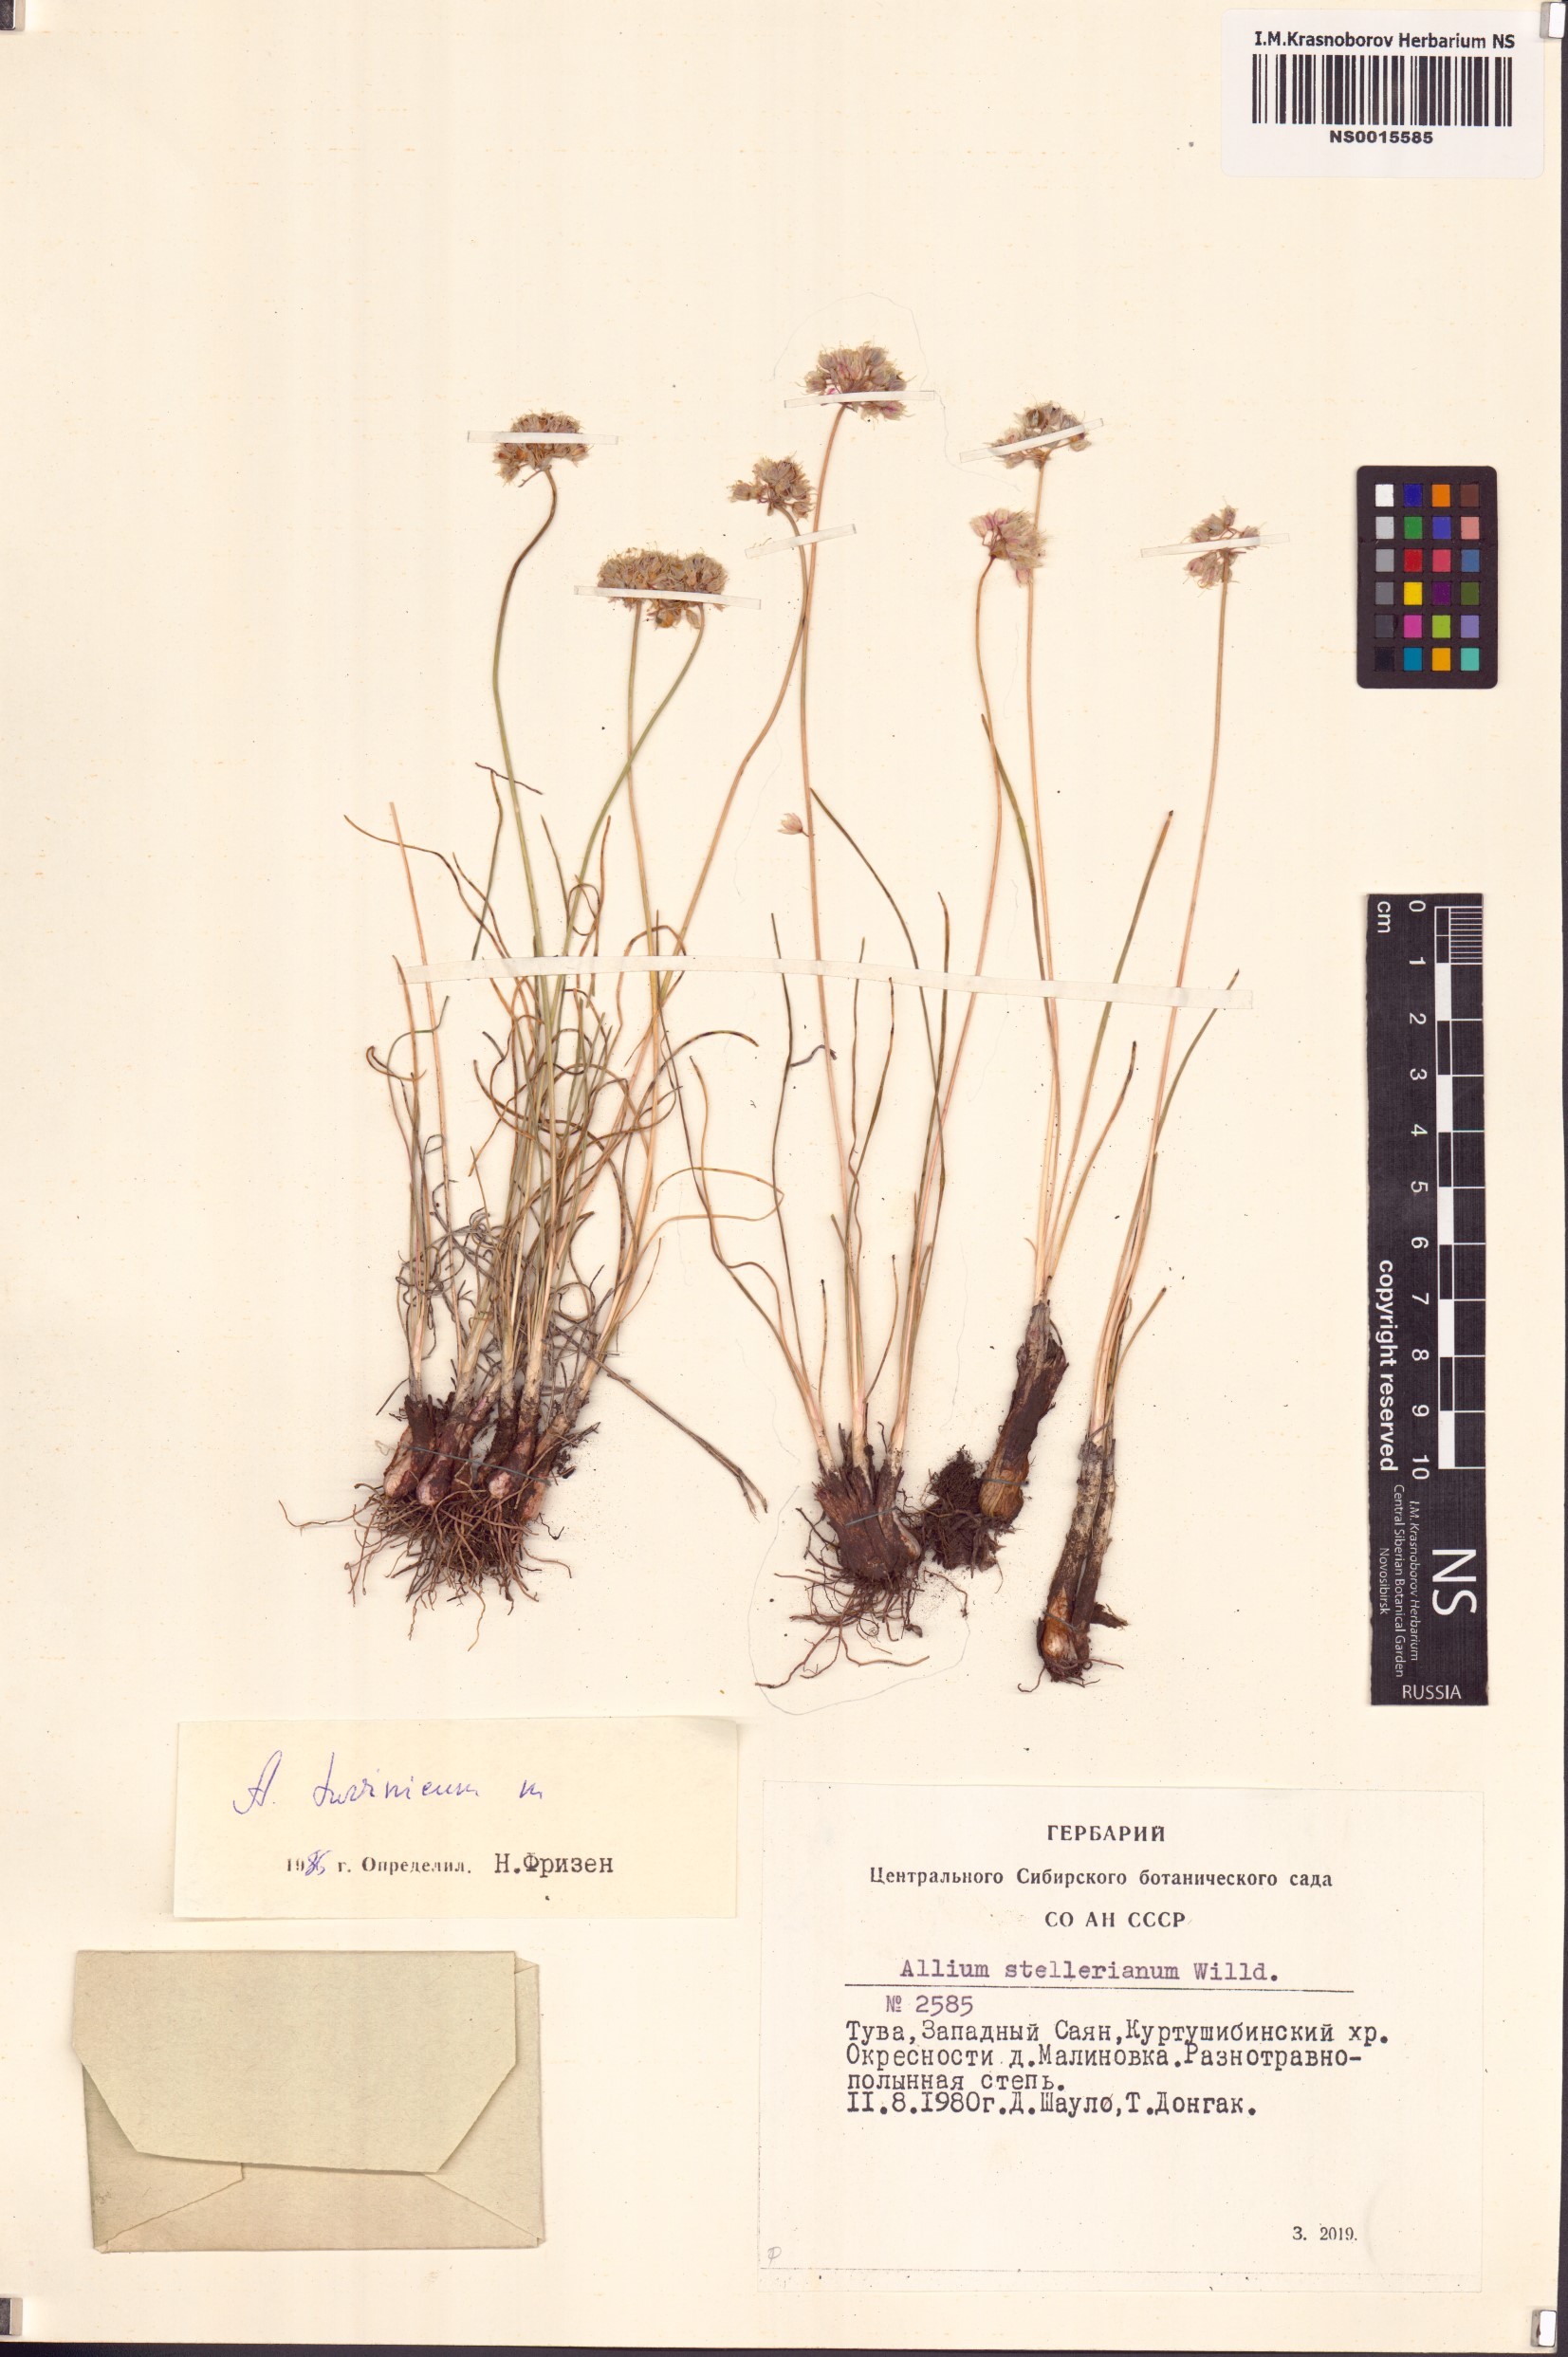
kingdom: Plantae
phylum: Tracheophyta
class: Liliopsida
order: Asparagales
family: Amaryllidaceae
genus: Allium
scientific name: Allium tuvinicum
